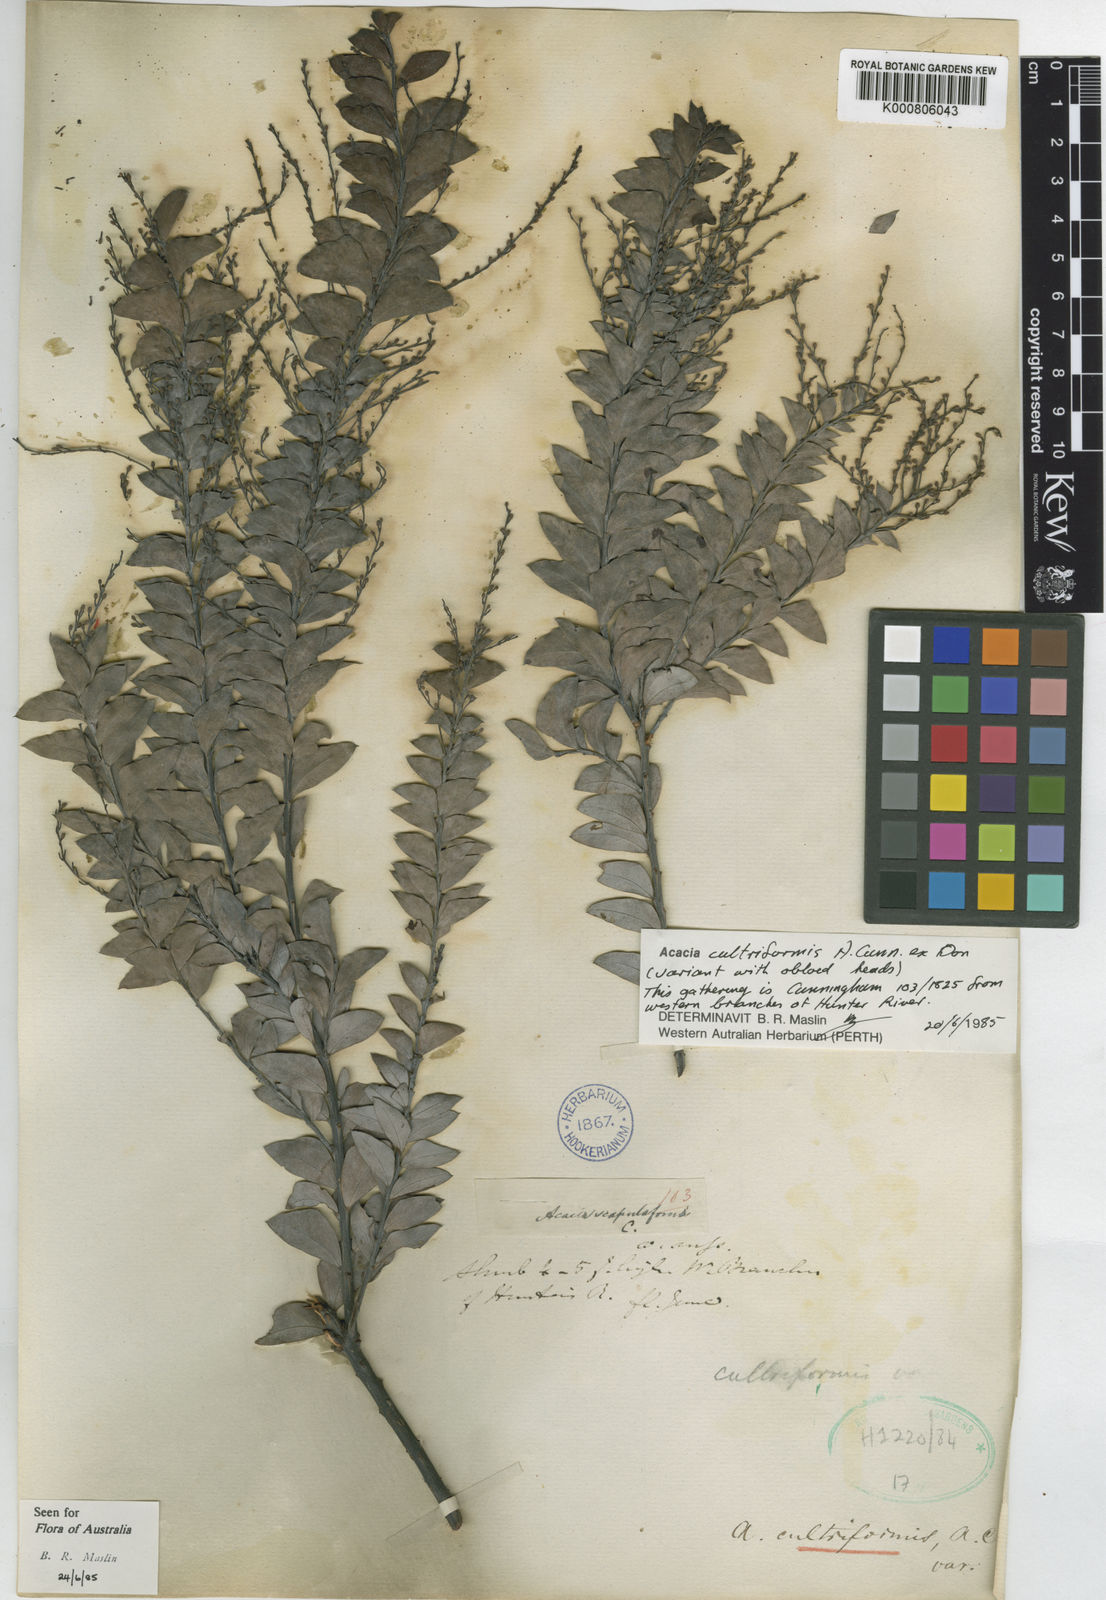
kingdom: Plantae
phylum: Tracheophyta
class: Magnoliopsida
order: Fabales
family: Fabaceae
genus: Acacia
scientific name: Acacia cultriformis
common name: Knife acacia
